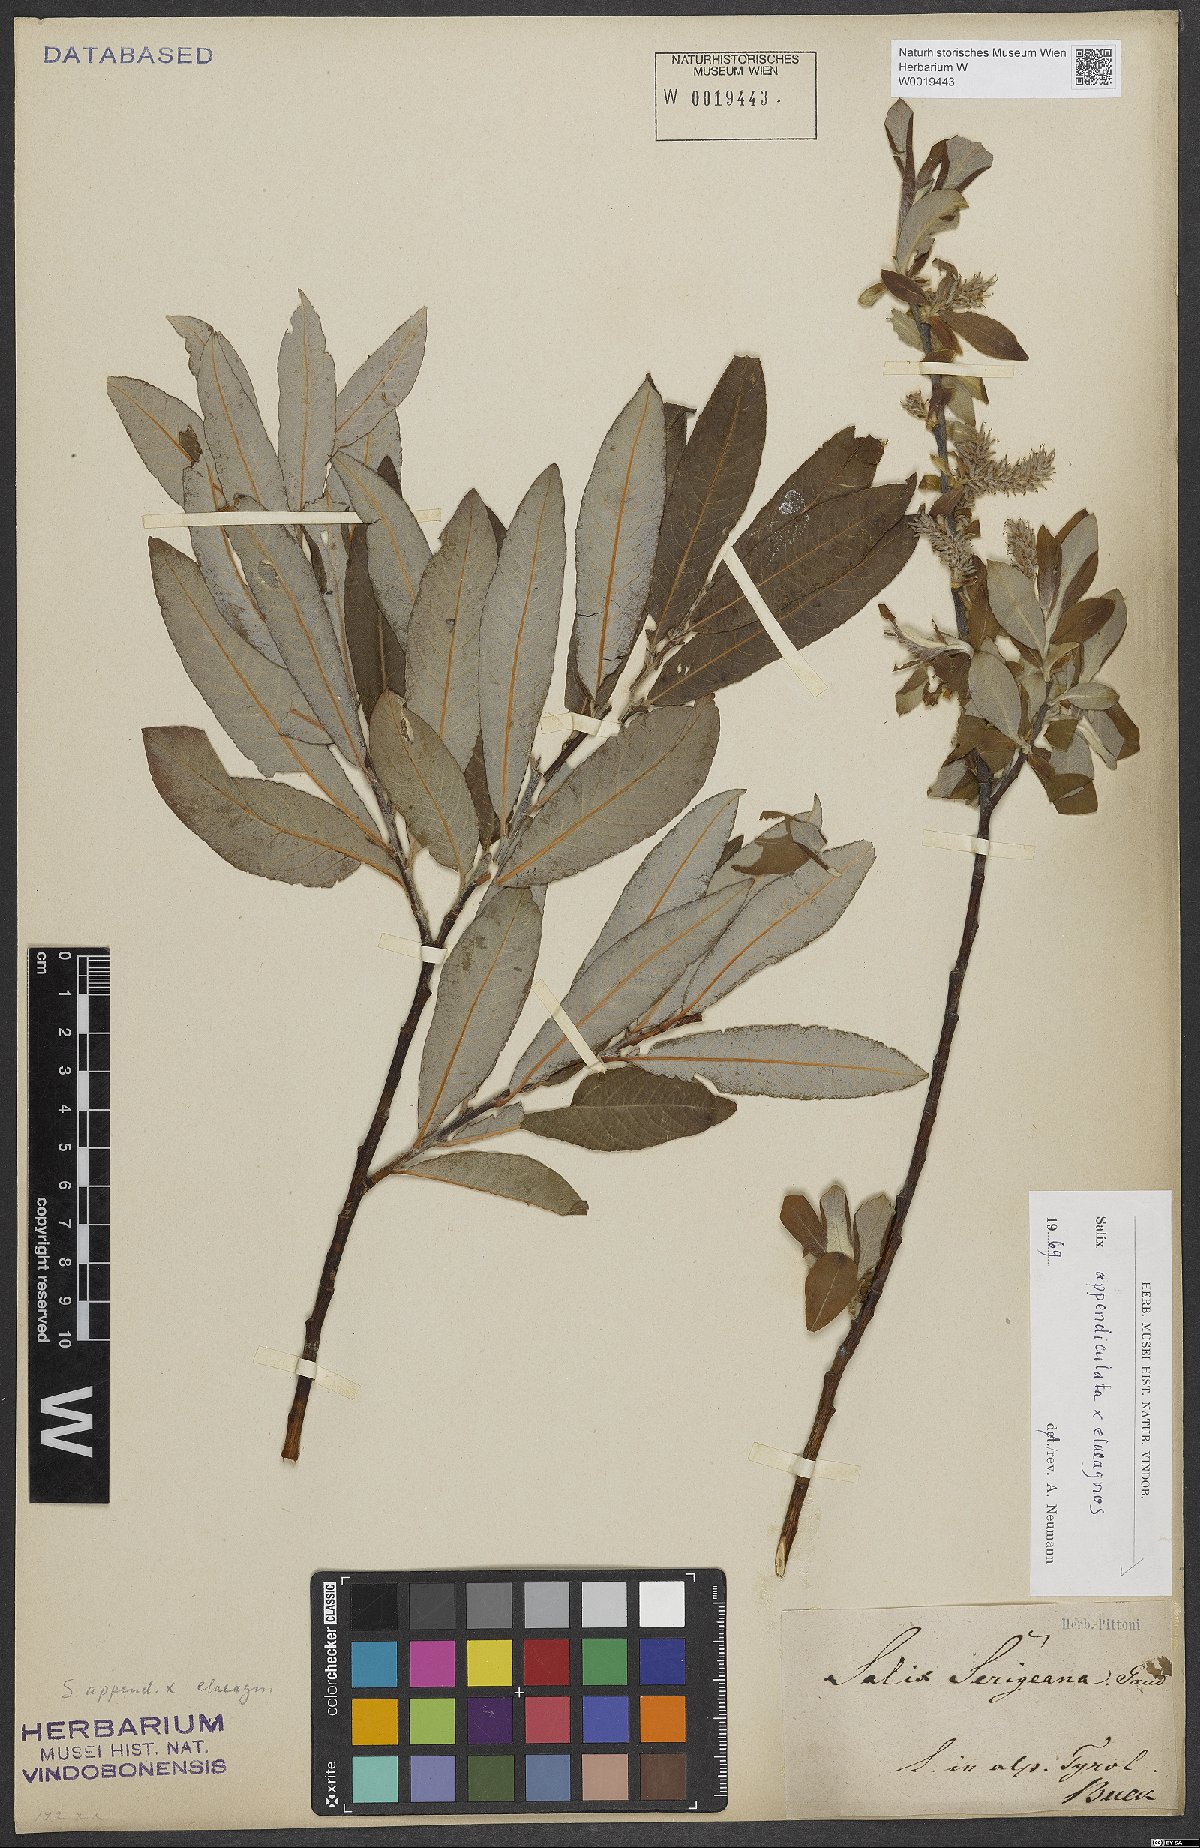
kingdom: Plantae
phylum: Tracheophyta
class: Magnoliopsida
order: Malpighiales
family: Salicaceae
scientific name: Salicaceae
